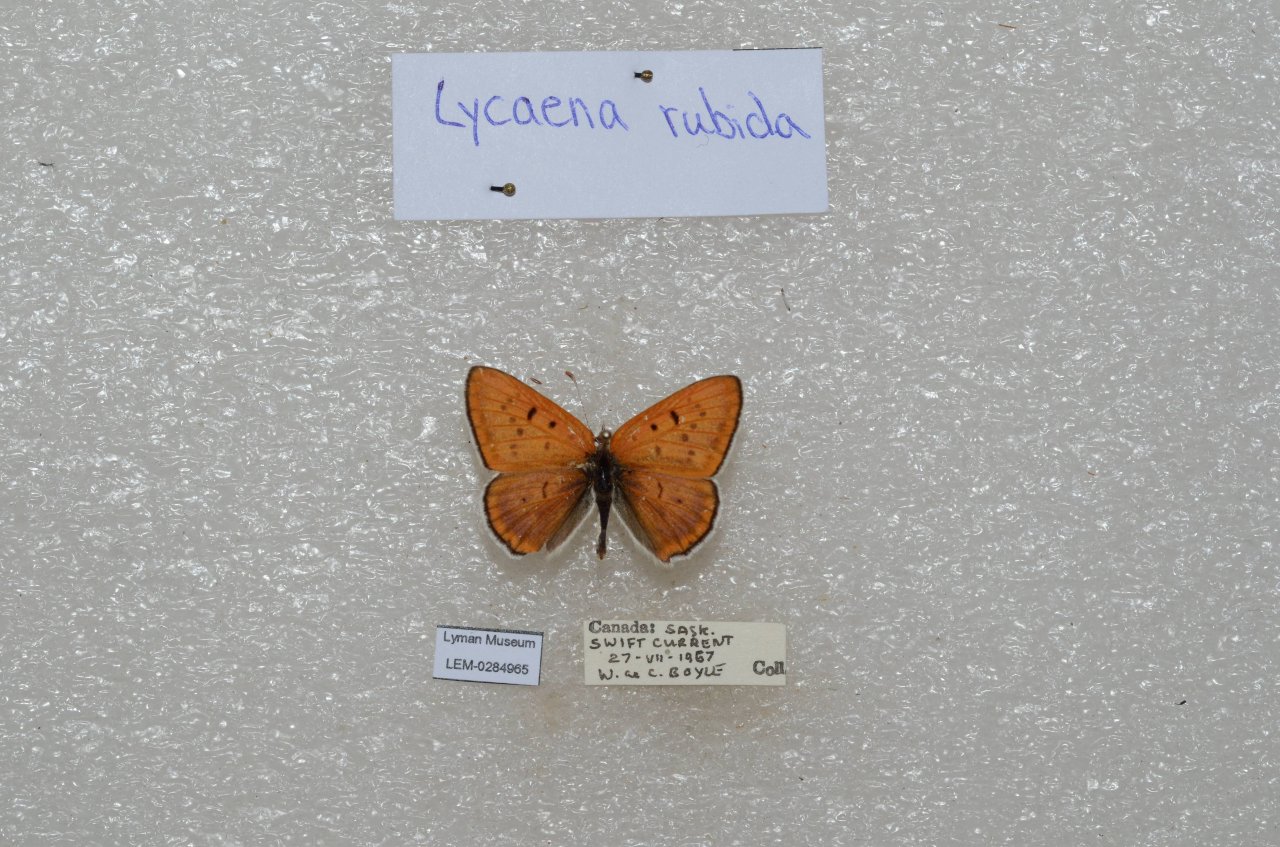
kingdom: Animalia
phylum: Arthropoda
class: Insecta
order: Lepidoptera
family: Sesiidae
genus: Sesia
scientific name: Sesia Lycaena rubidus
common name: Ruddy Copper
